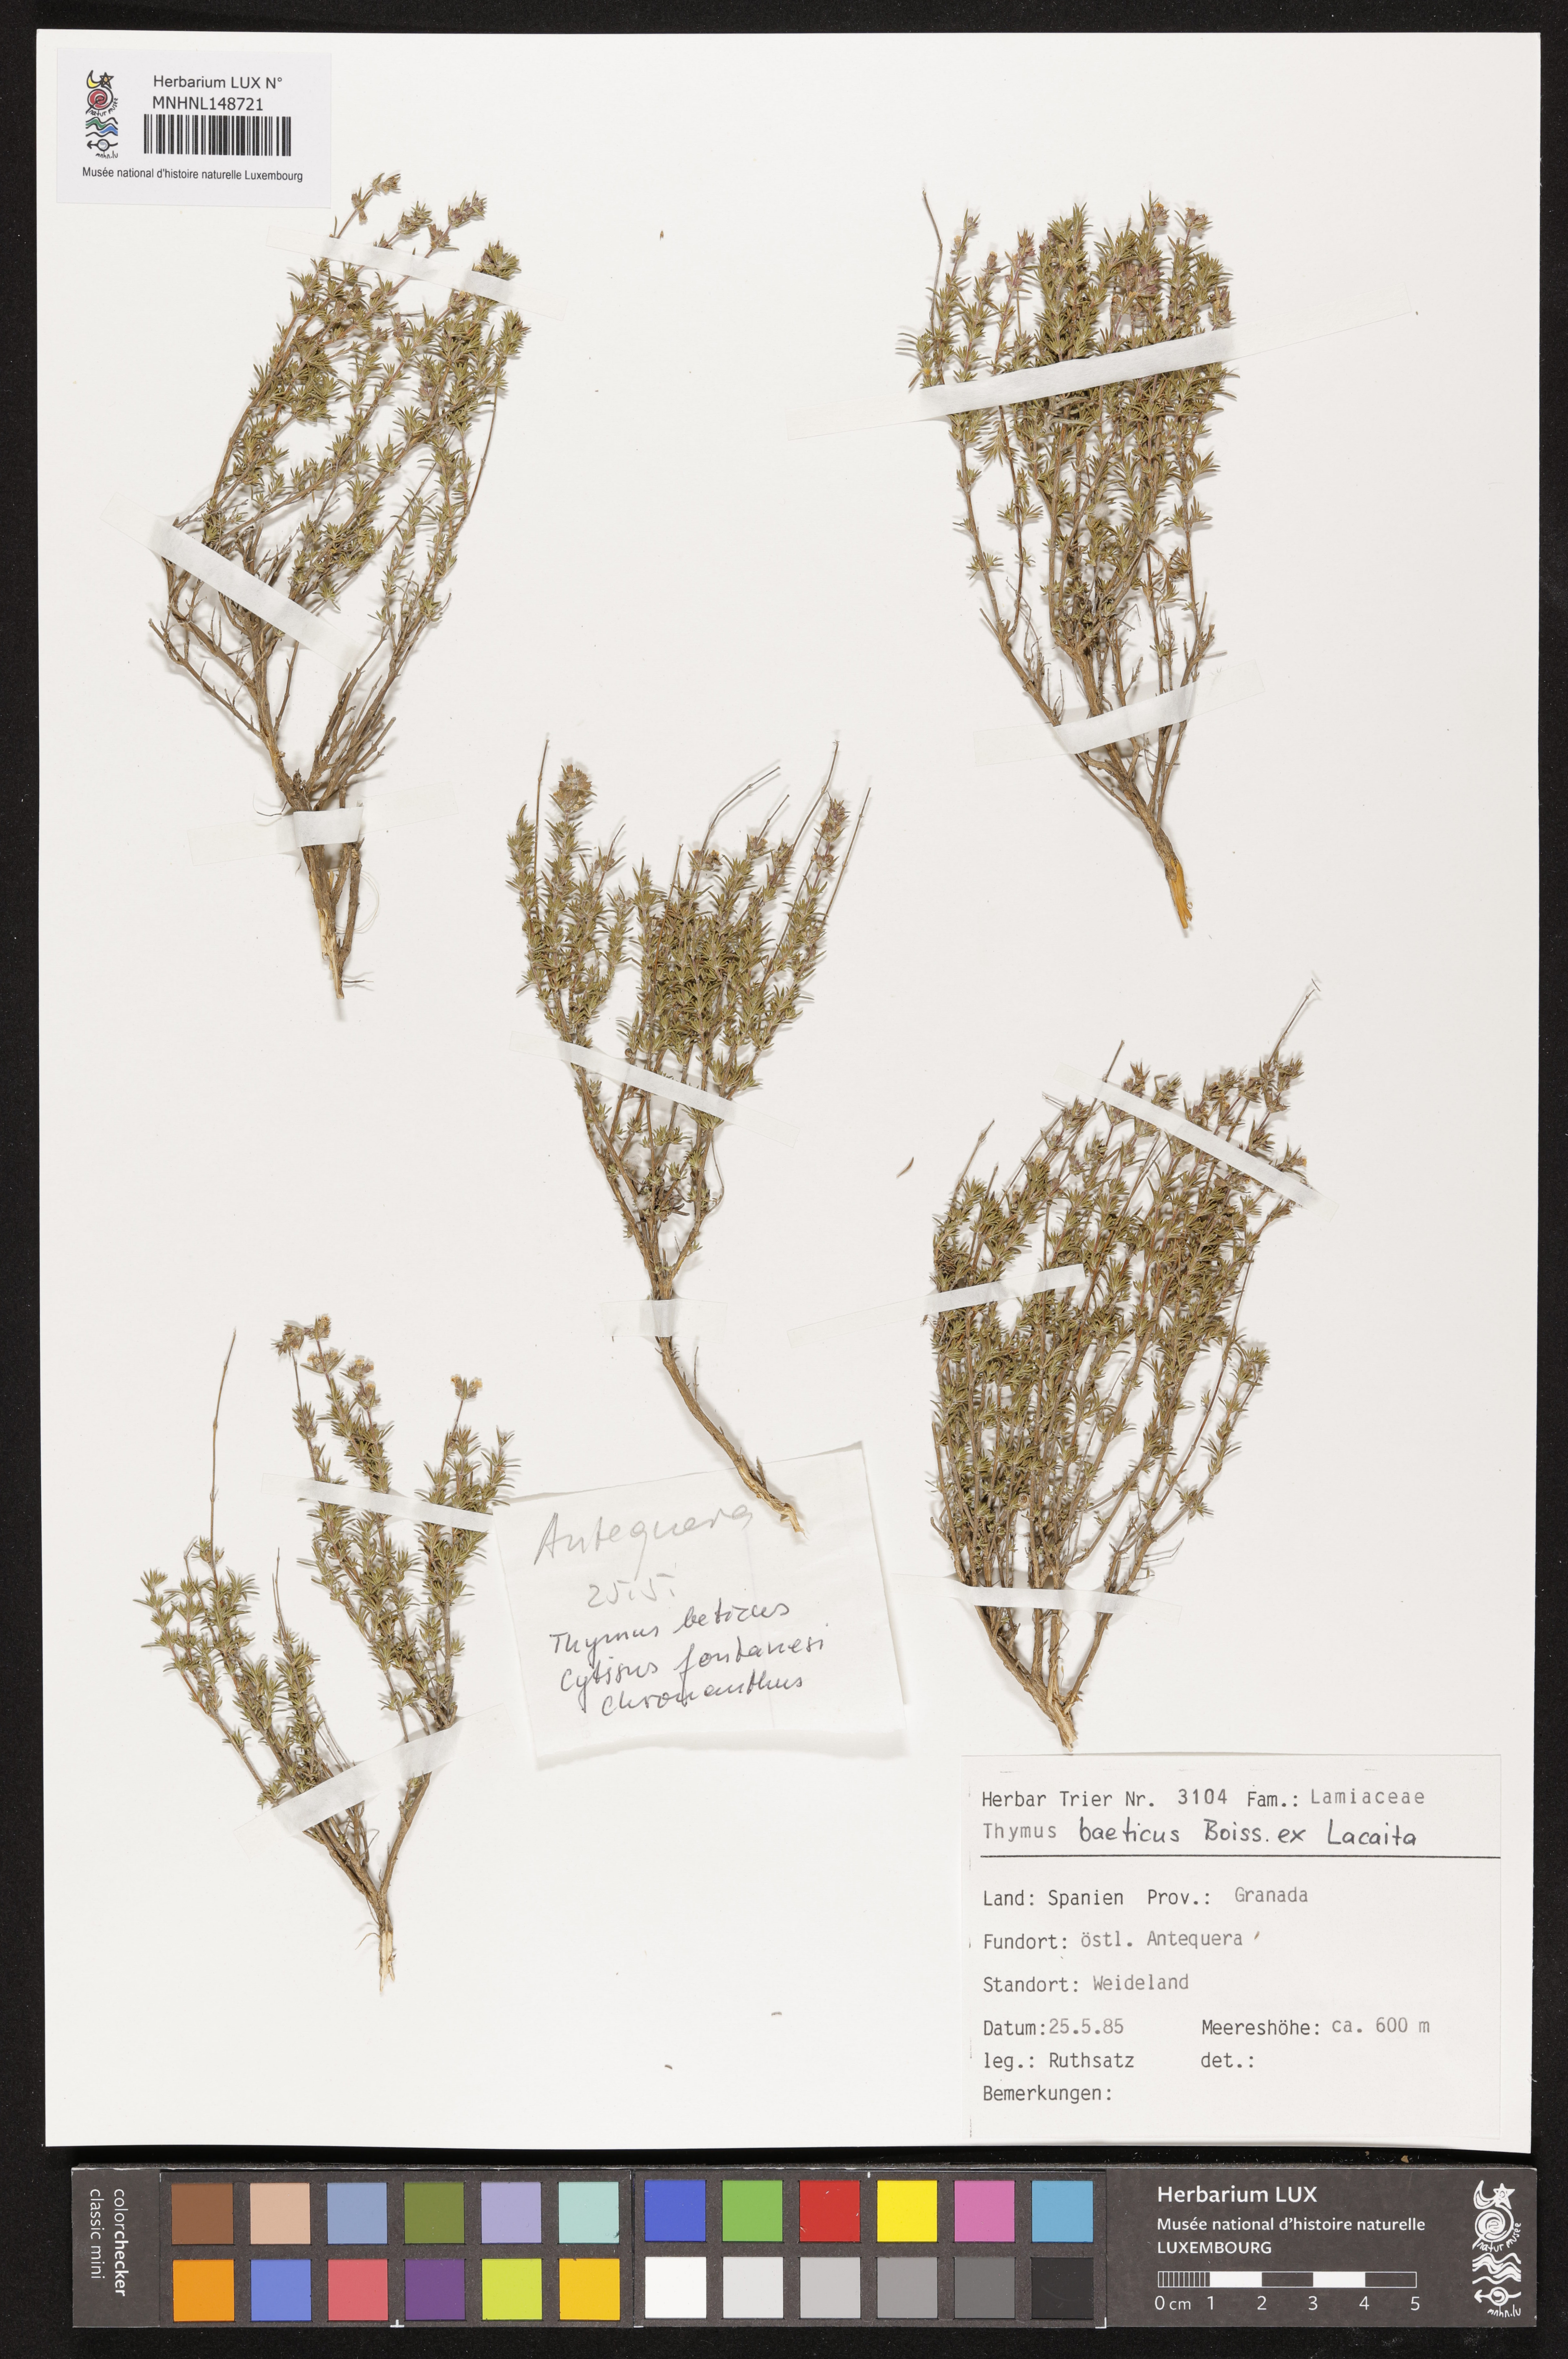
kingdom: Plantae
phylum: Tracheophyta
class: Magnoliopsida
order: Lamiales
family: Lamiaceae
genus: Thymus
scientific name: Thymus baeticus
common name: Spanish lemon thyme
